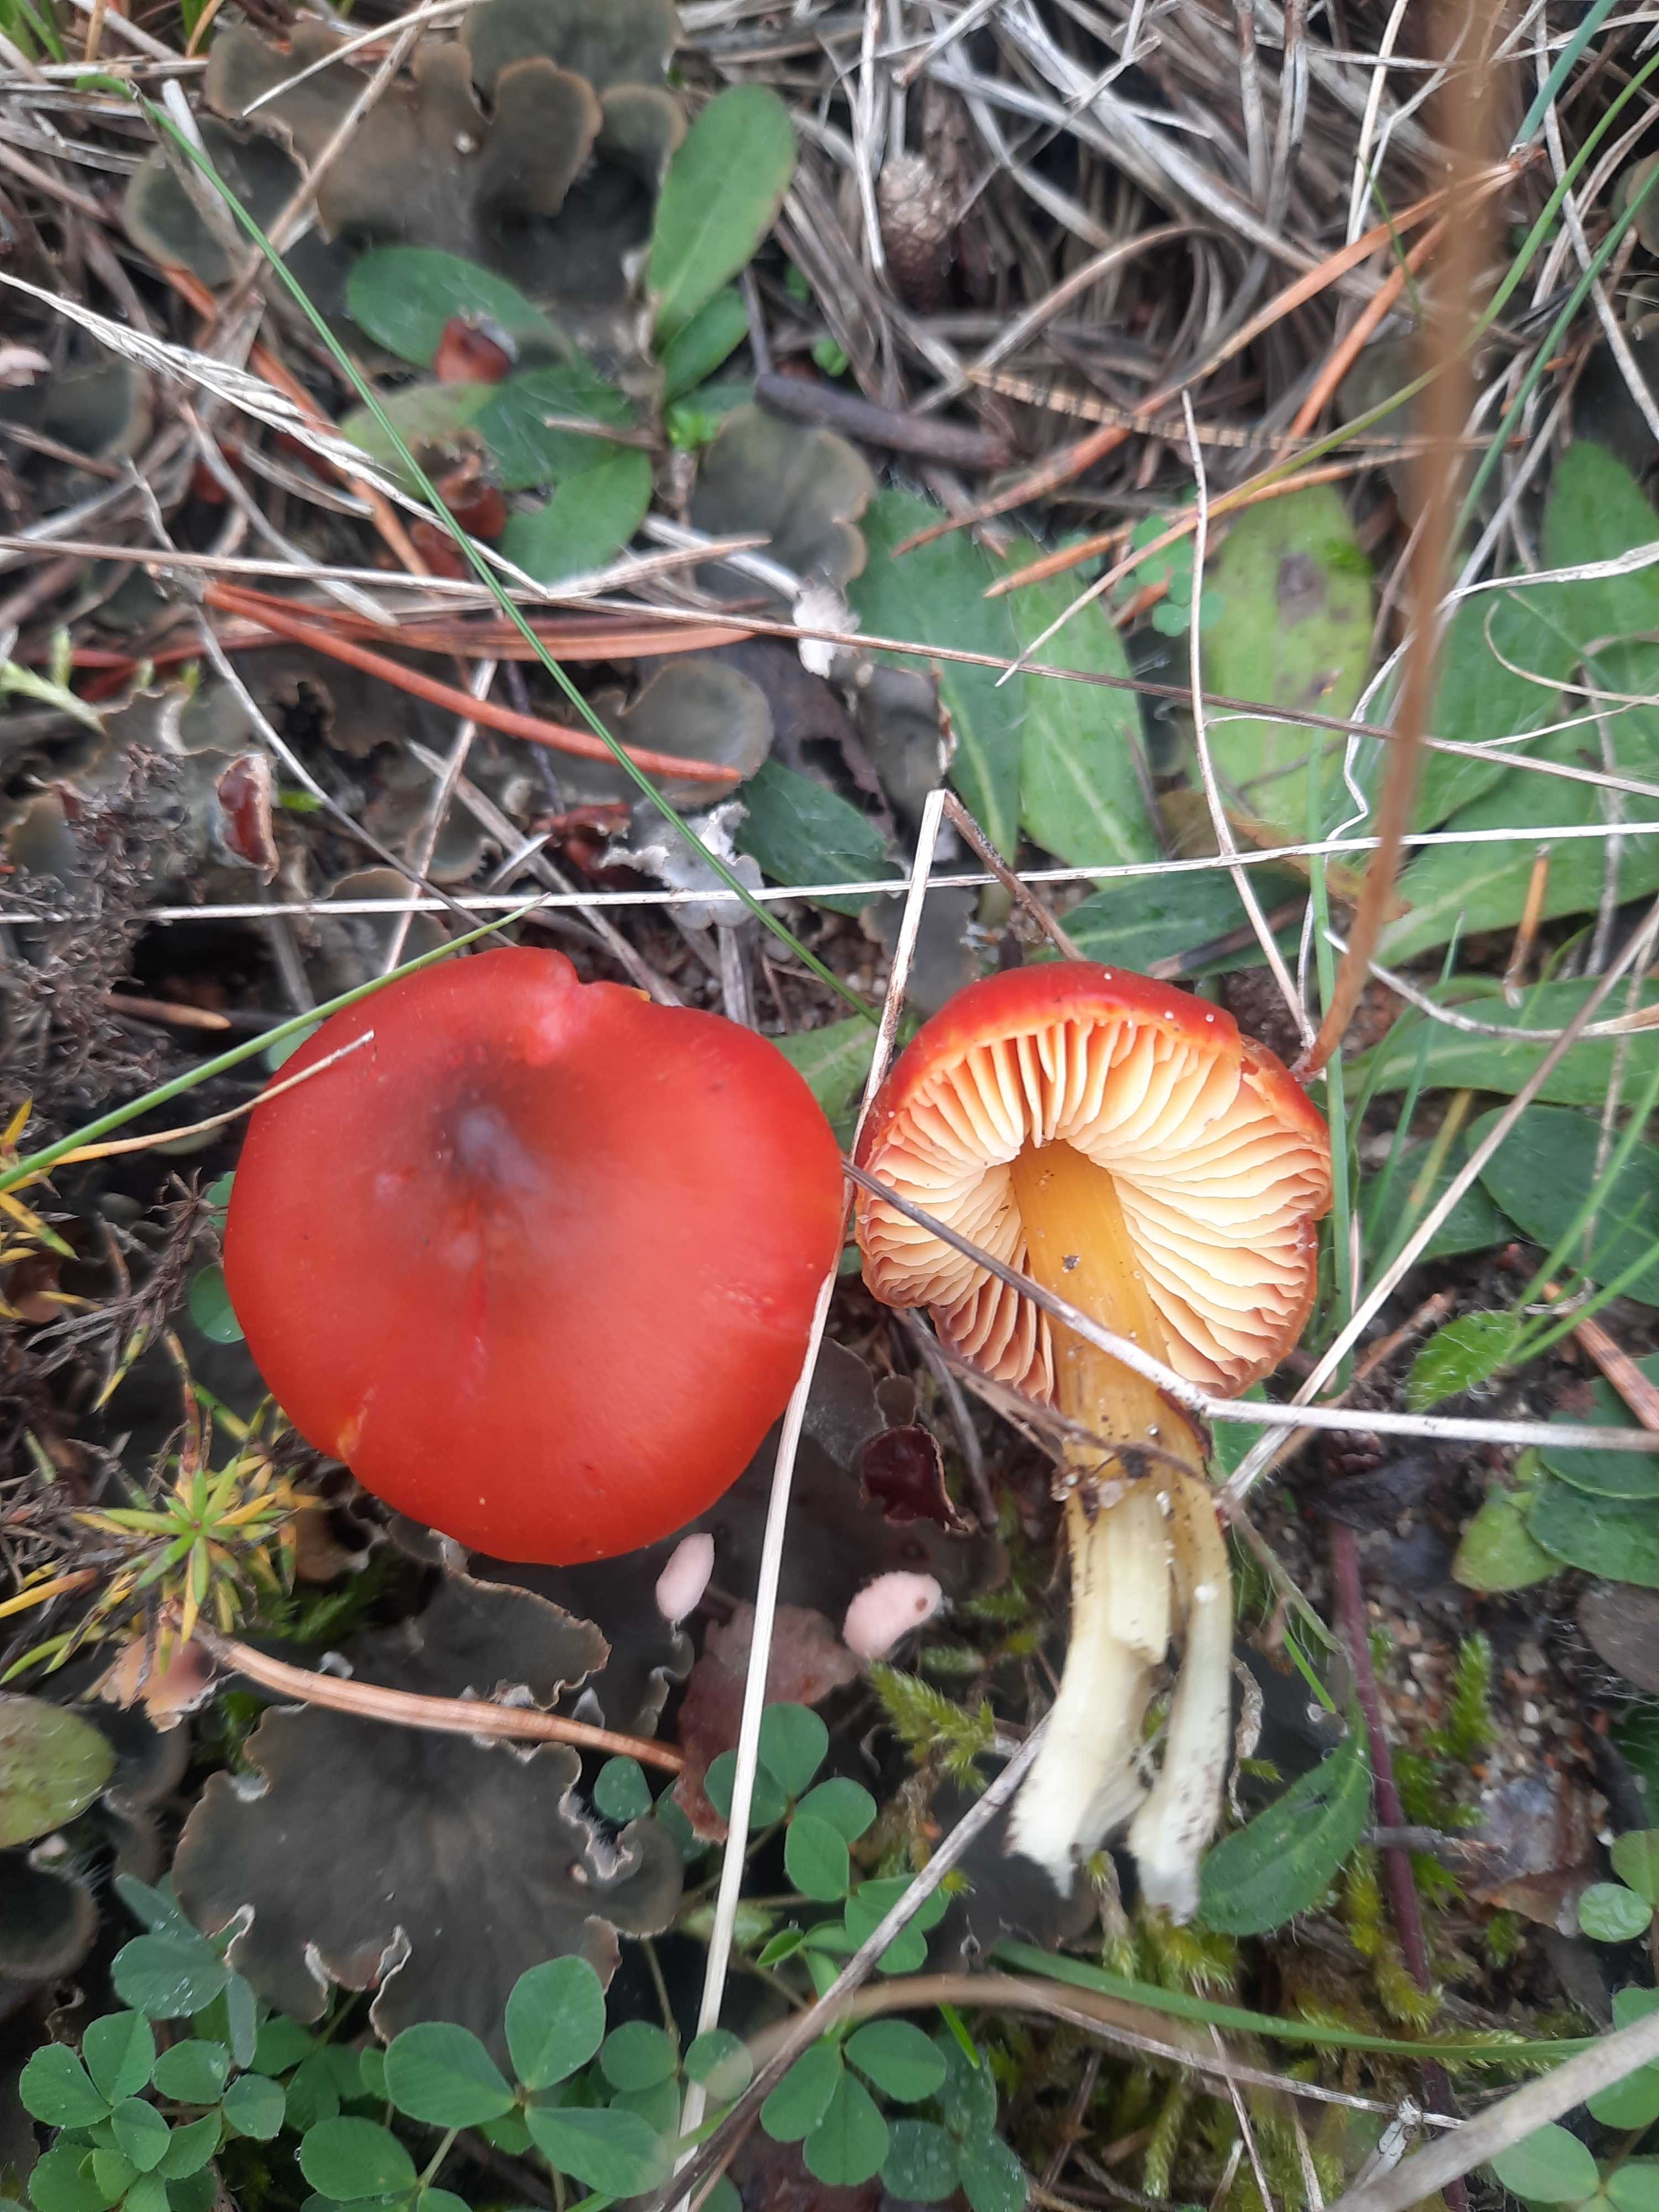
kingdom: Fungi
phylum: Basidiomycota
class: Agaricomycetes
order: Agaricales
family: Hygrophoraceae
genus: Hygrocybe
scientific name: Hygrocybe conica
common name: kegle-vokshat
